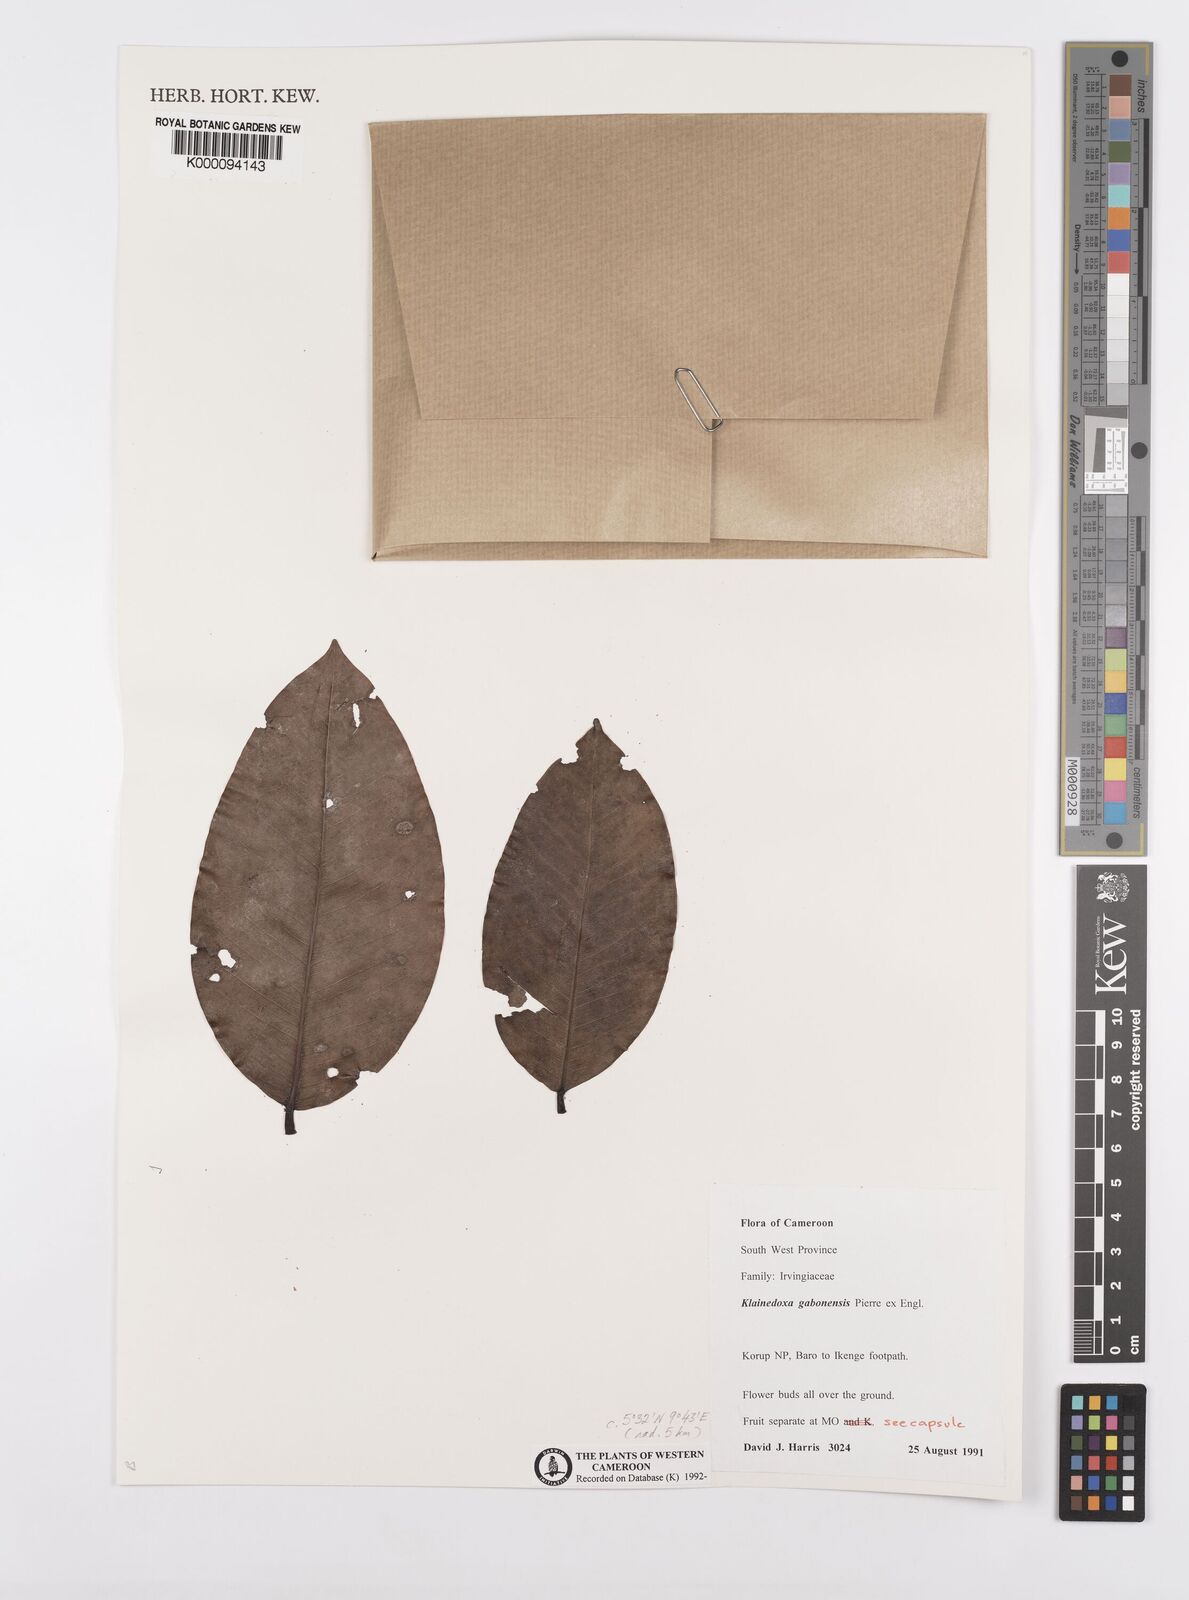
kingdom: Plantae
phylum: Tracheophyta
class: Magnoliopsida
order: Malpighiales
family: Irvingiaceae
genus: Klainedoxa
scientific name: Klainedoxa gabonensis
